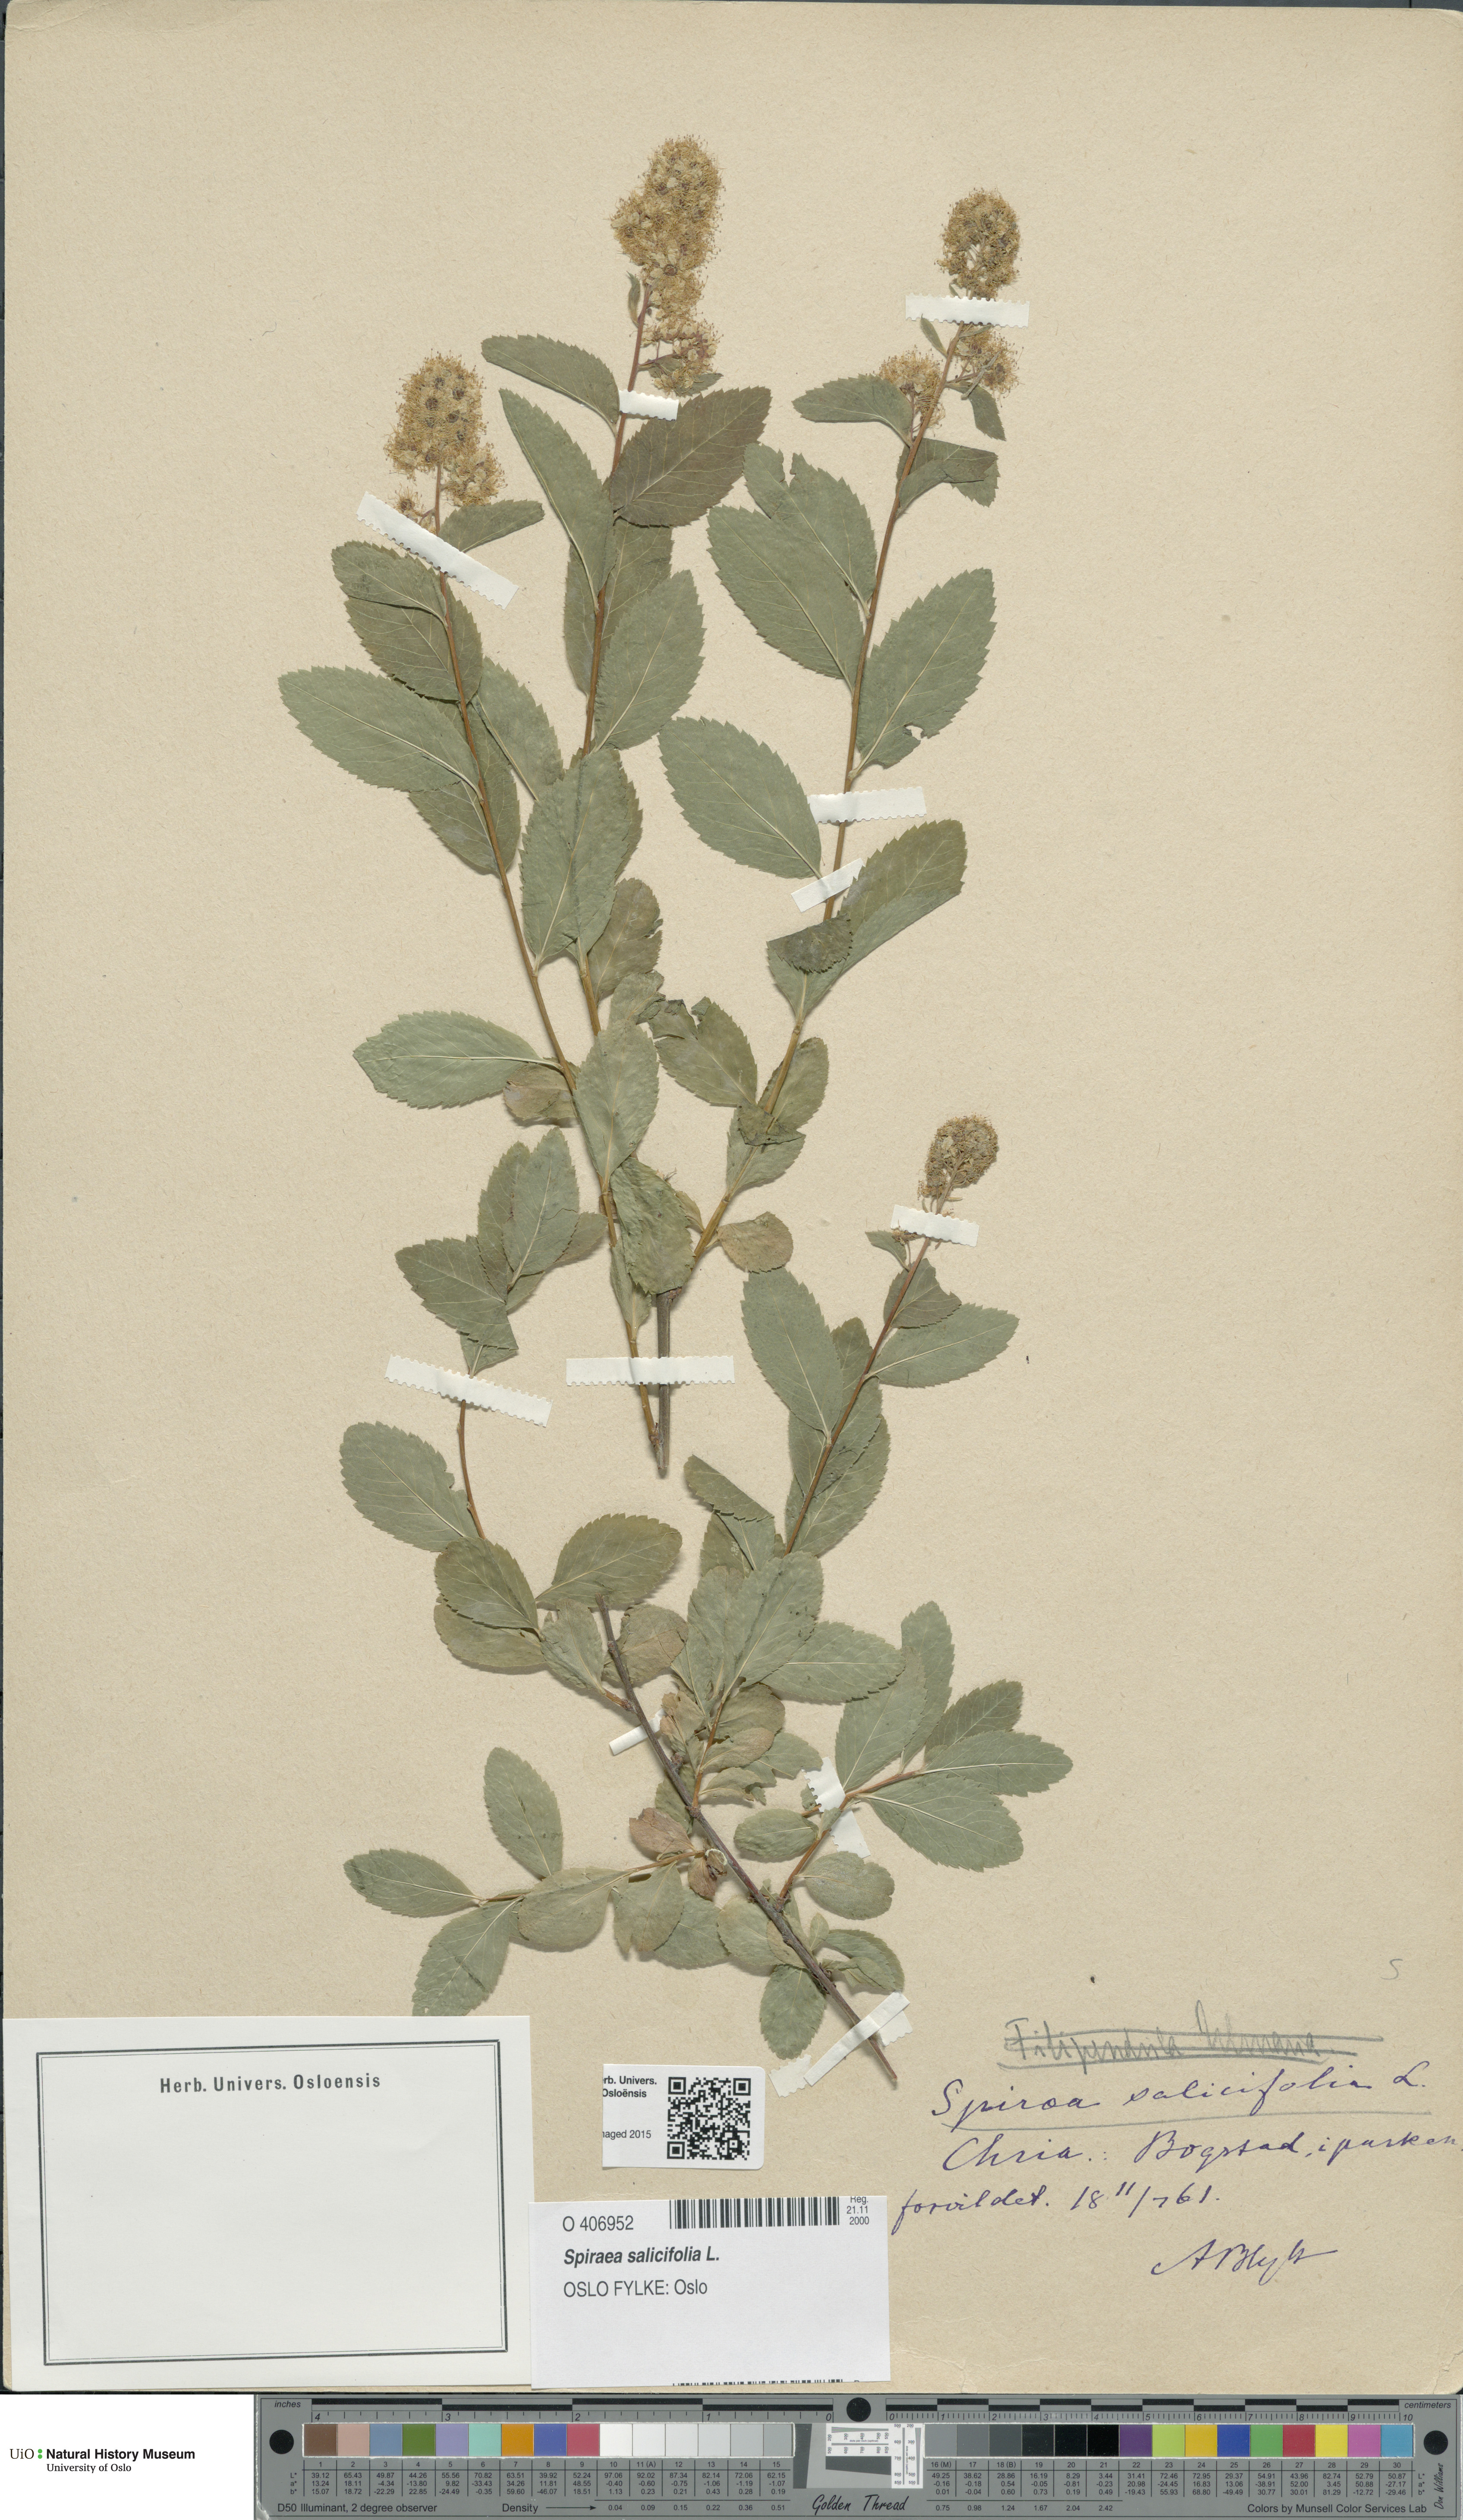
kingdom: Plantae
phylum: Tracheophyta
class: Magnoliopsida
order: Rosales
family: Rosaceae
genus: Spiraea
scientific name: Spiraea salicifolia
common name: Bridewort
